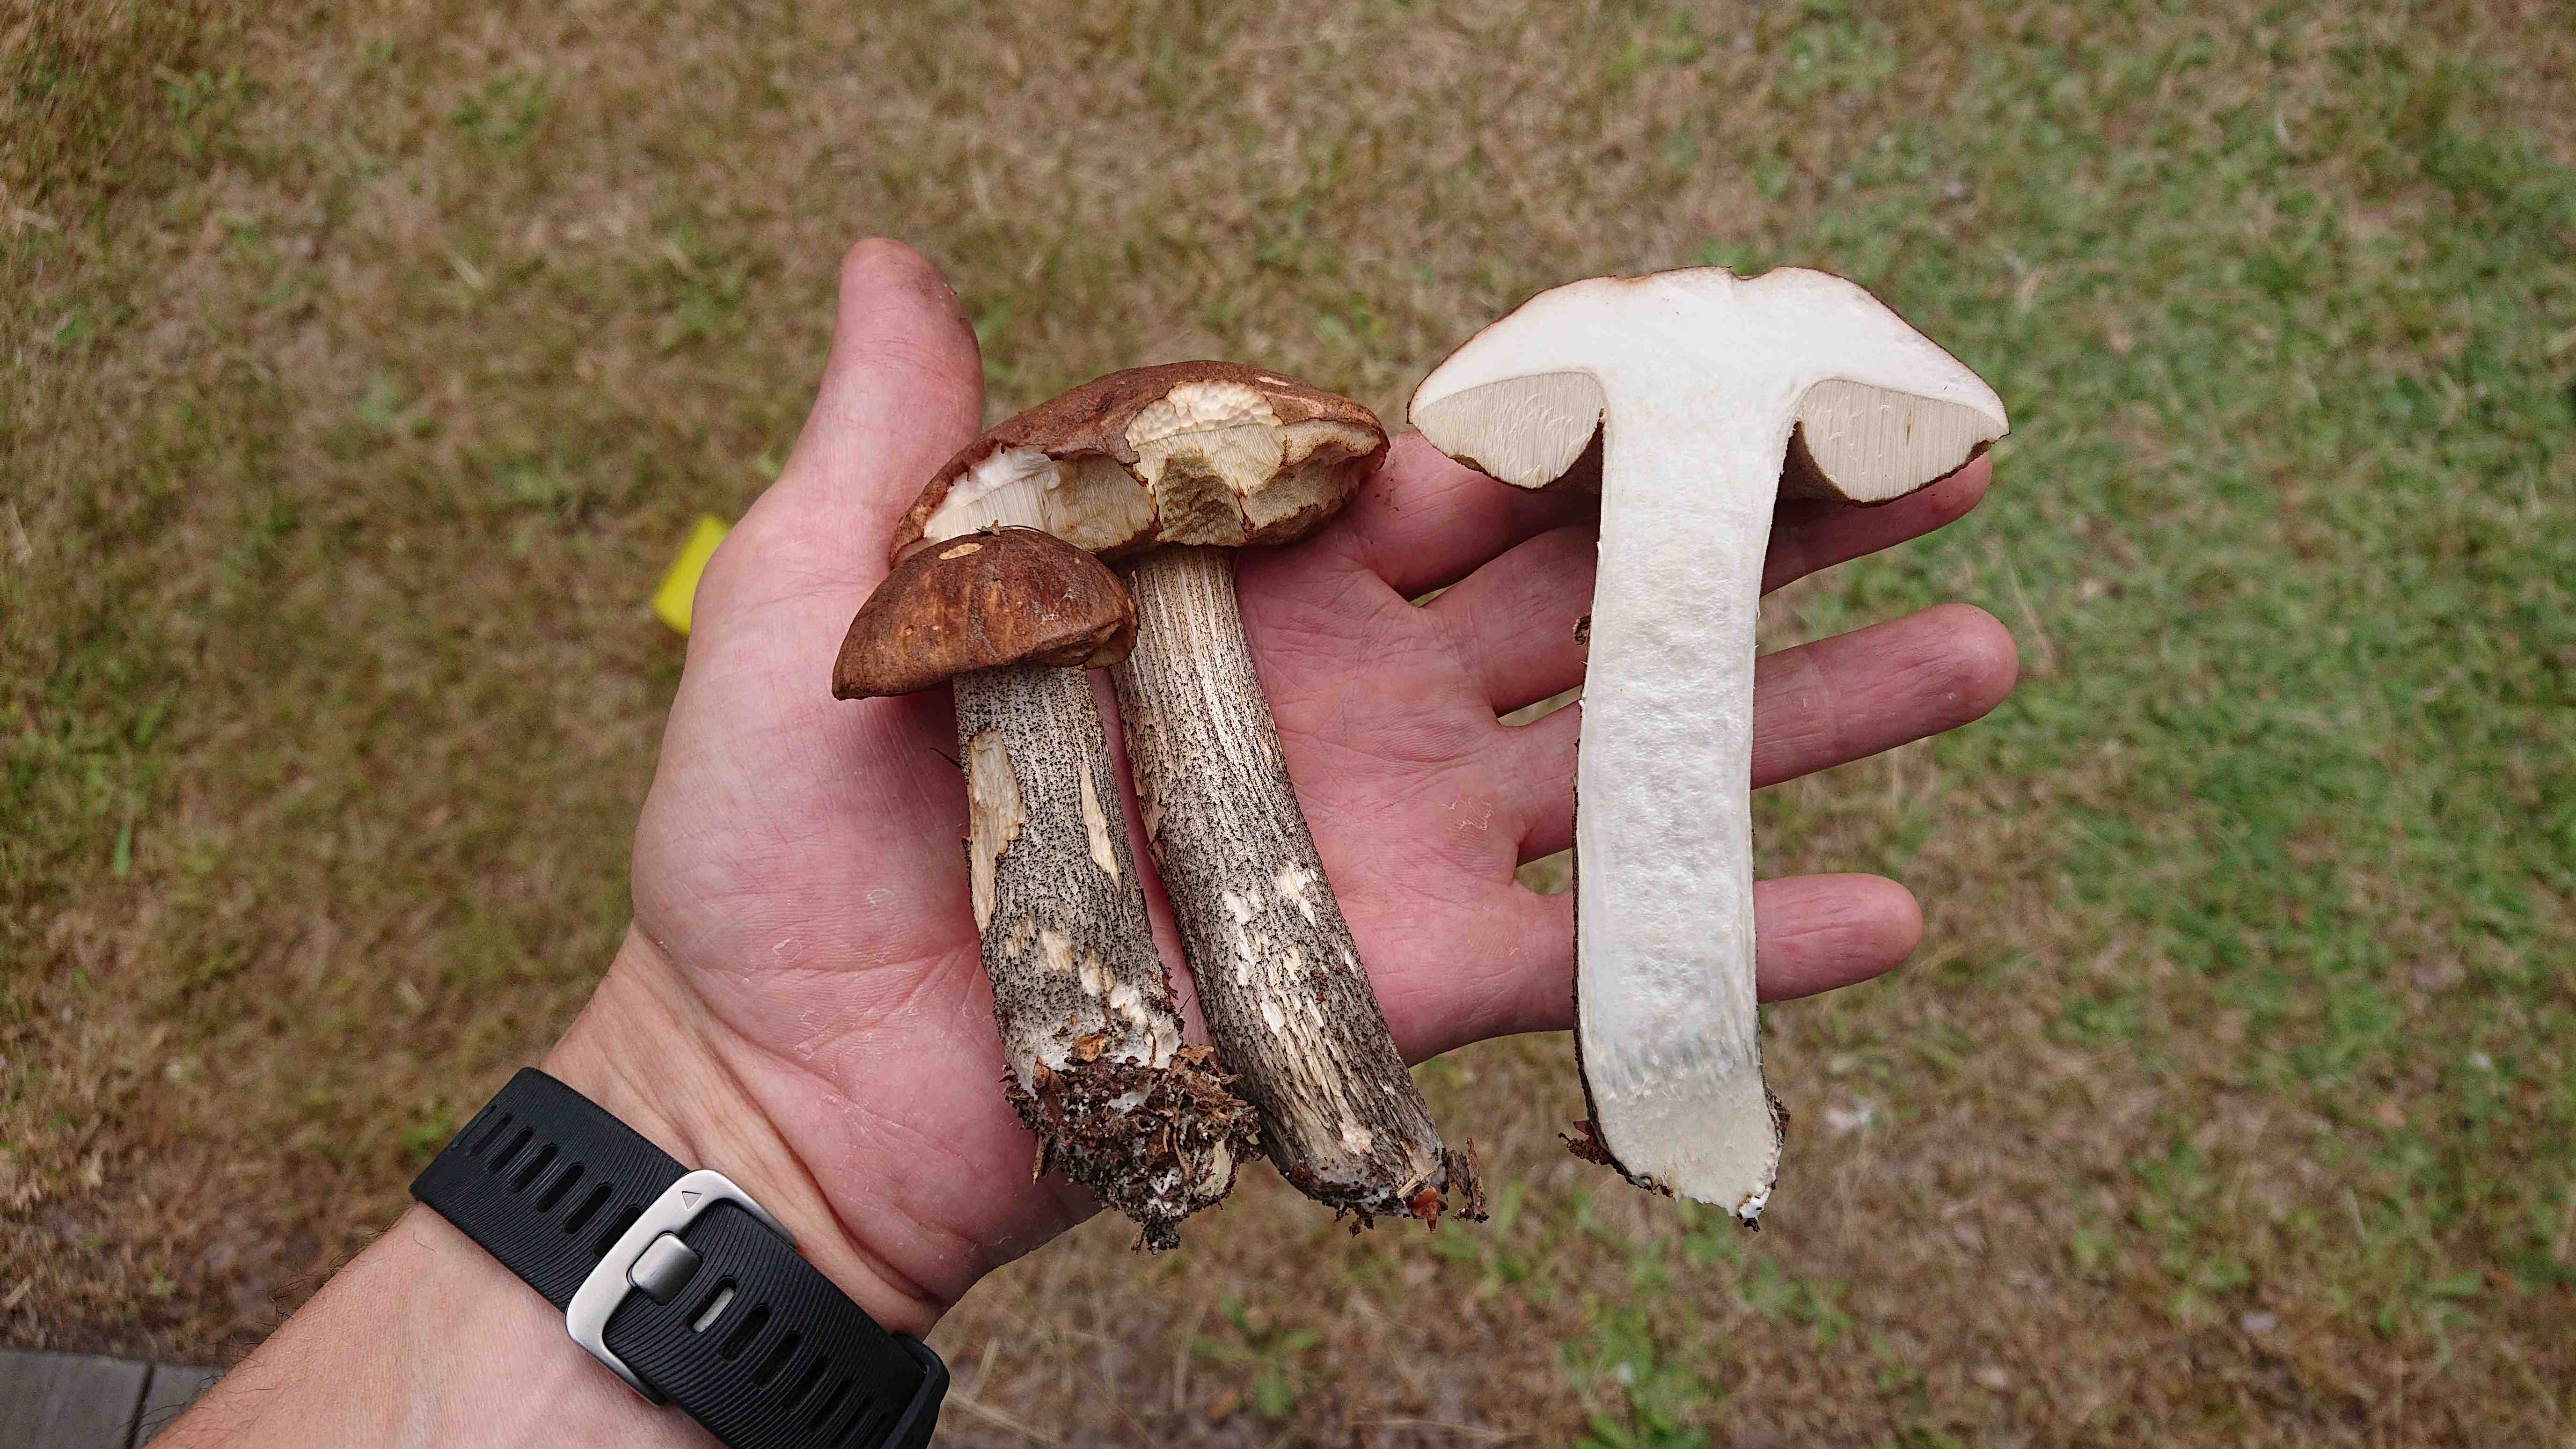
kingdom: Fungi
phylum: Basidiomycota
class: Agaricomycetes
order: Boletales
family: Boletaceae
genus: Leccinum
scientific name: Leccinum scabrum
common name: brun skælrørhat
